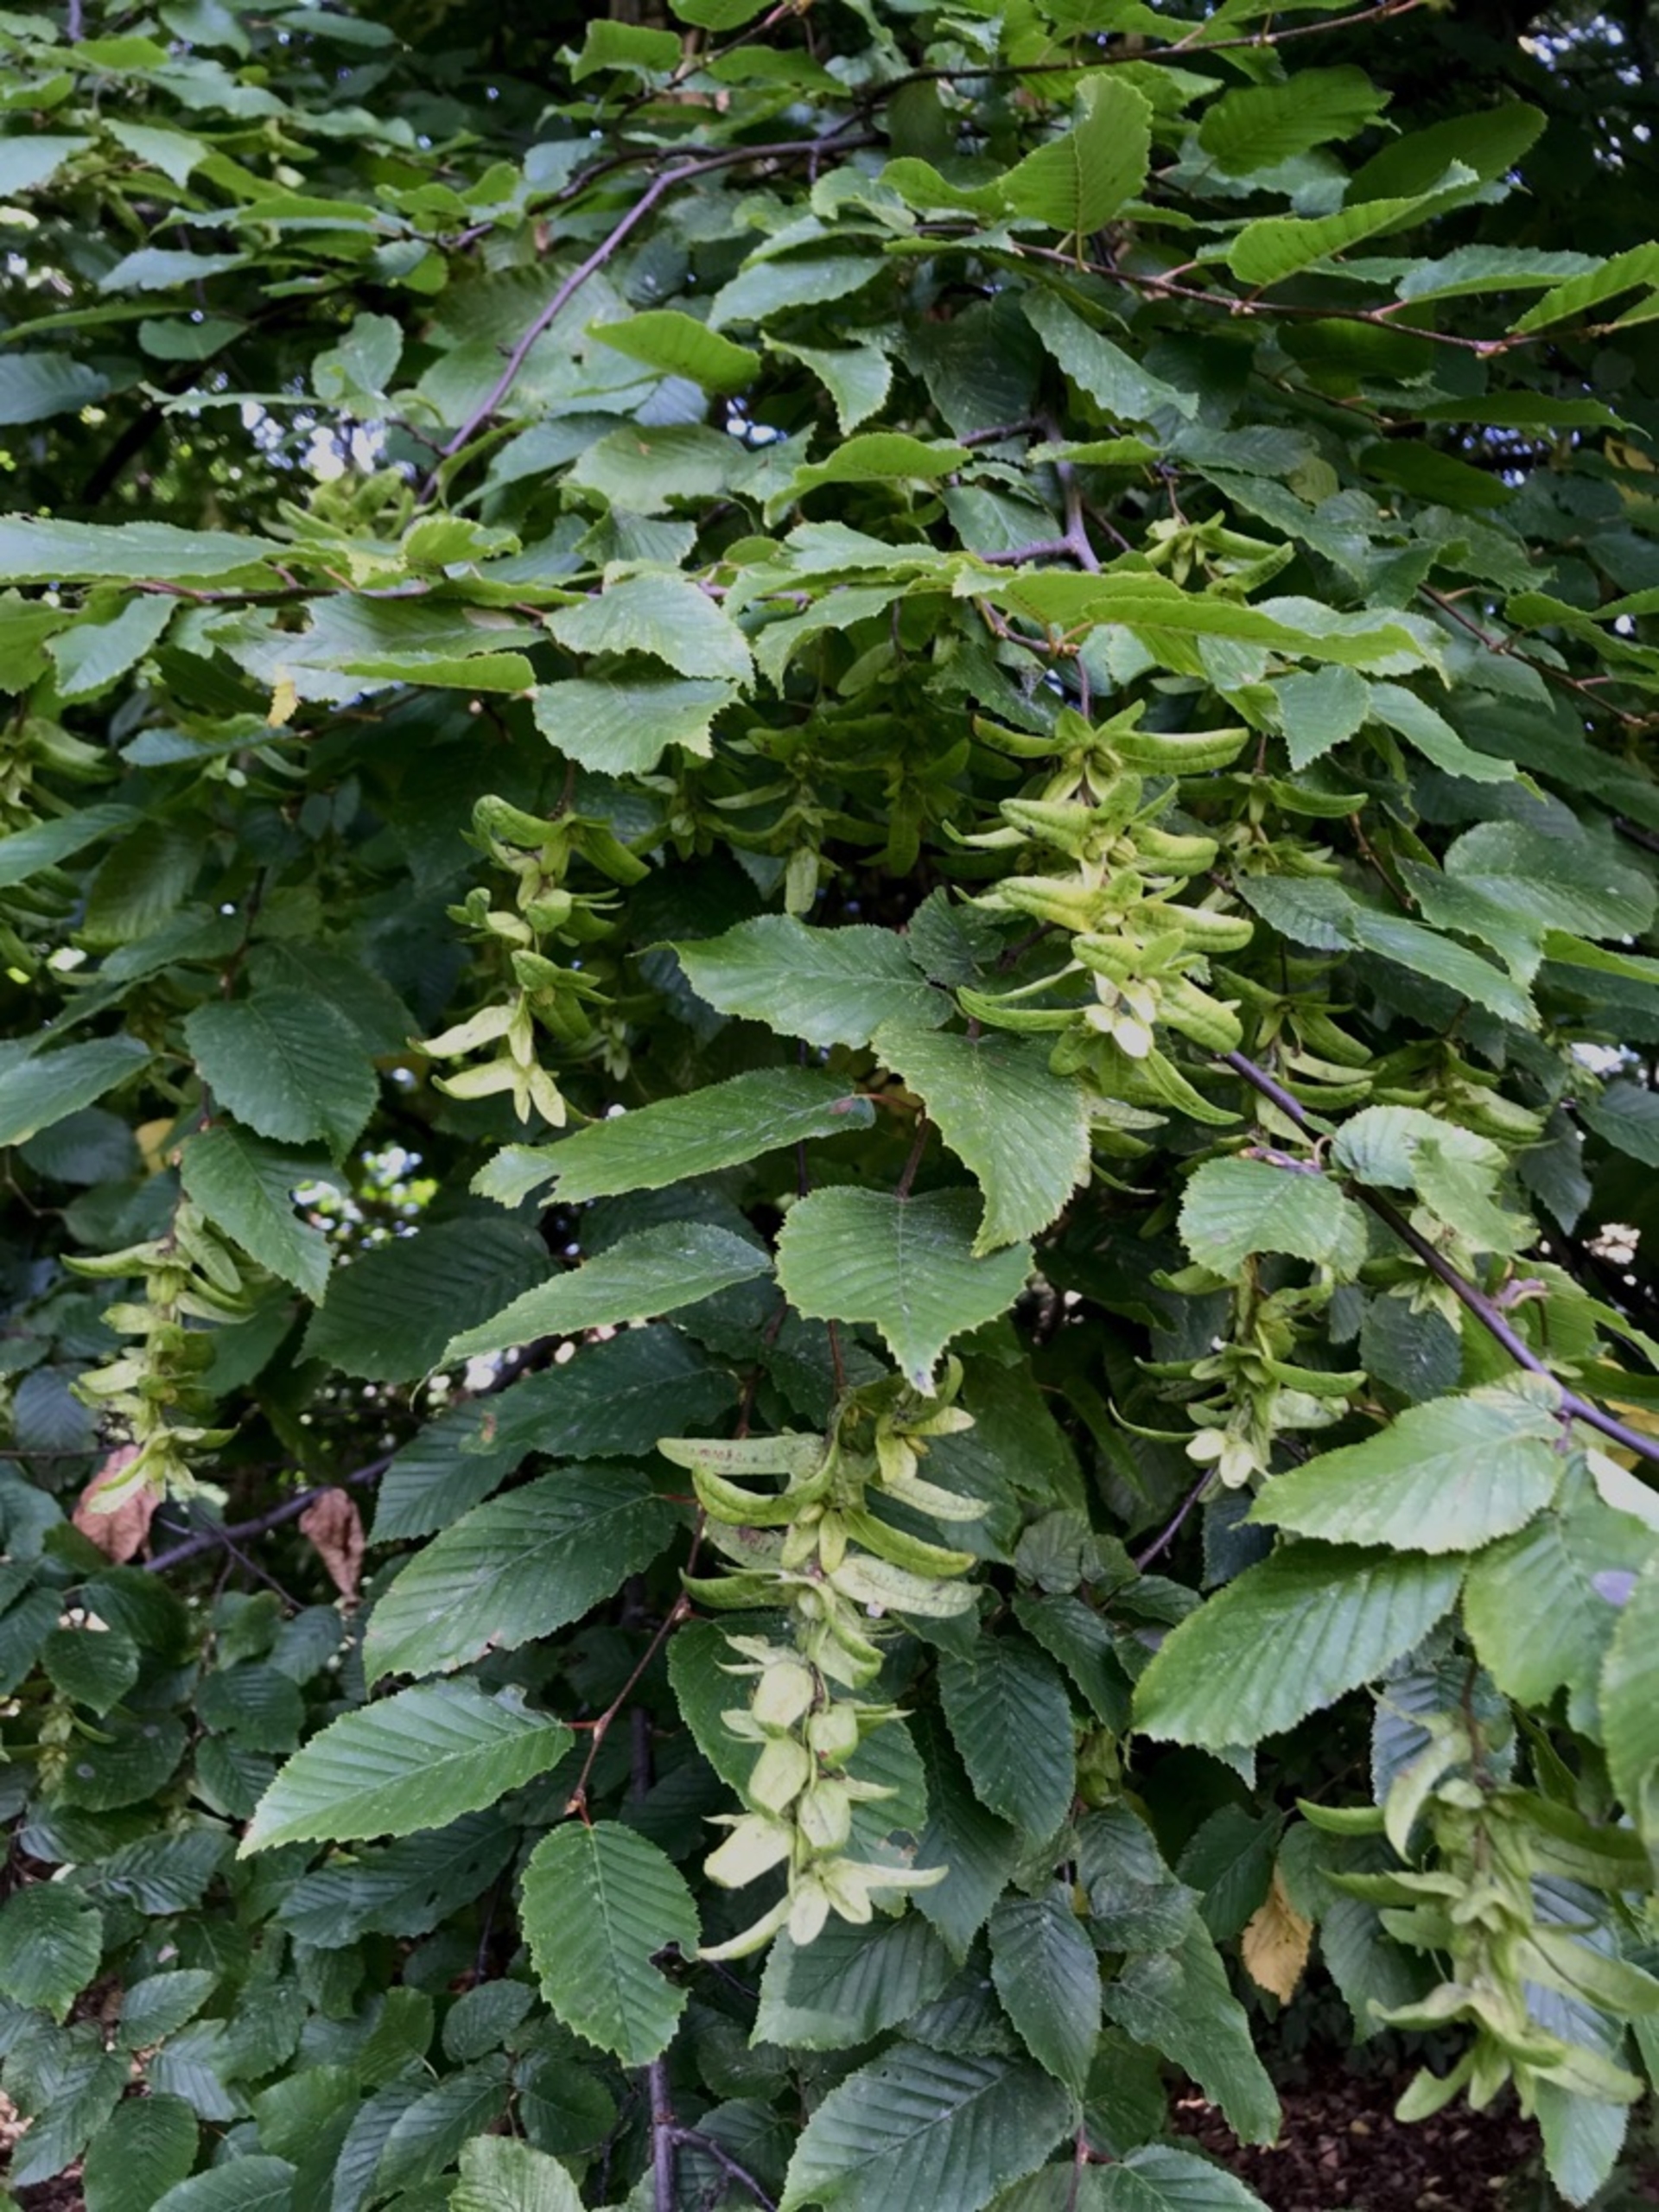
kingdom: Plantae
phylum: Tracheophyta
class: Magnoliopsida
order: Fagales
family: Betulaceae
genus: Carpinus
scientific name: Carpinus betulus
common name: Avnbøg
